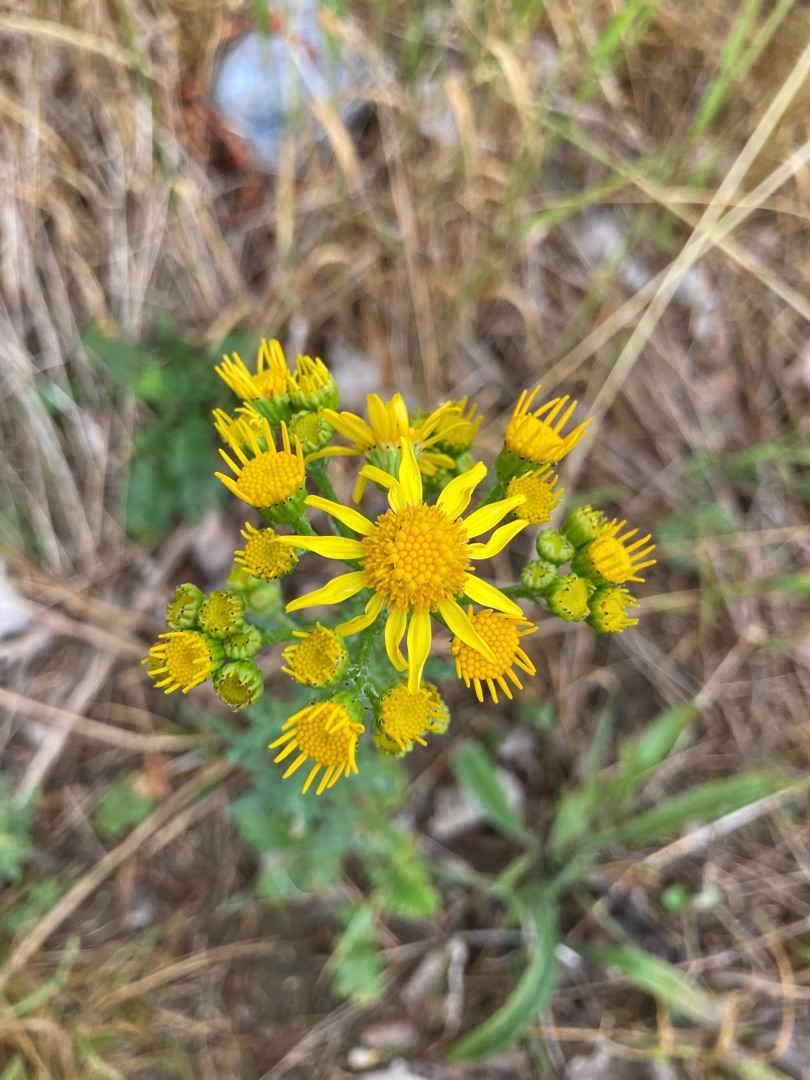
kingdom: Plantae
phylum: Tracheophyta
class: Magnoliopsida
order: Asterales
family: Asteraceae
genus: Jacobaea
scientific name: Jacobaea vulgaris
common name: Eng-brandbæger
